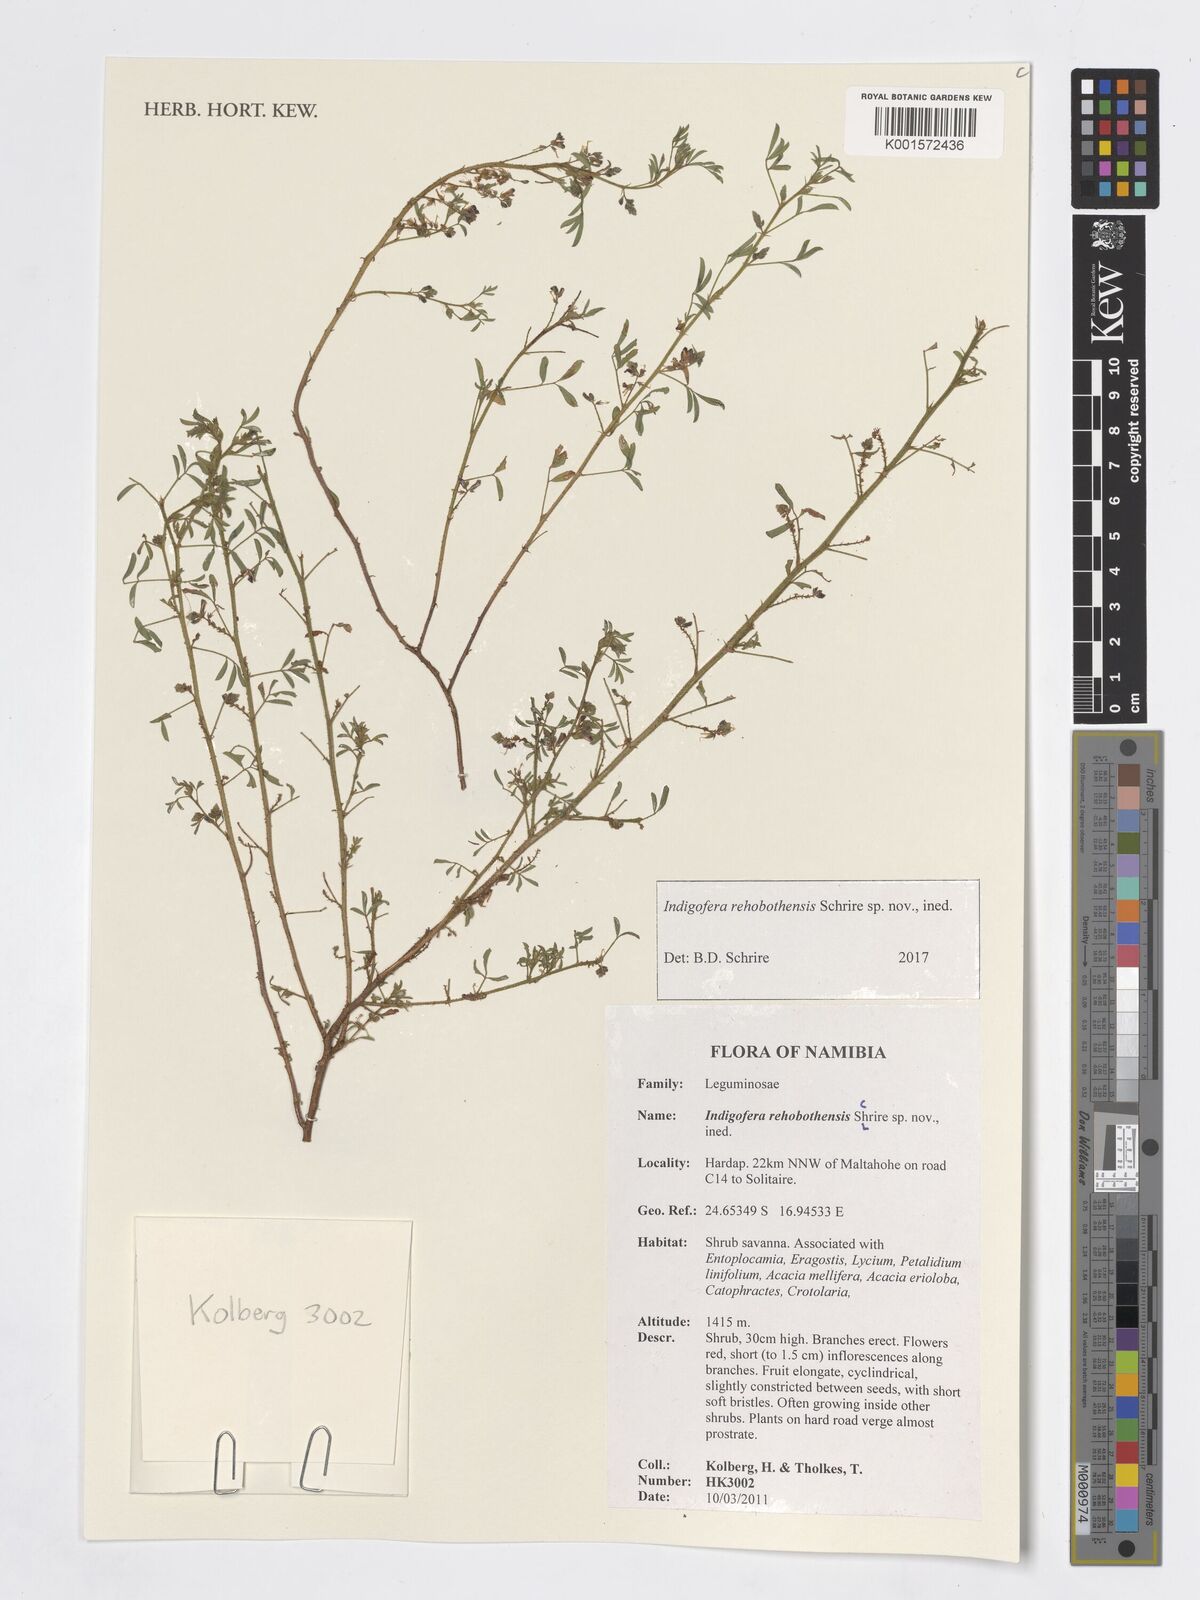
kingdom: Plantae
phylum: Tracheophyta
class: Magnoliopsida
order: Fabales
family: Fabaceae
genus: Indigofera
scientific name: Indigofera
